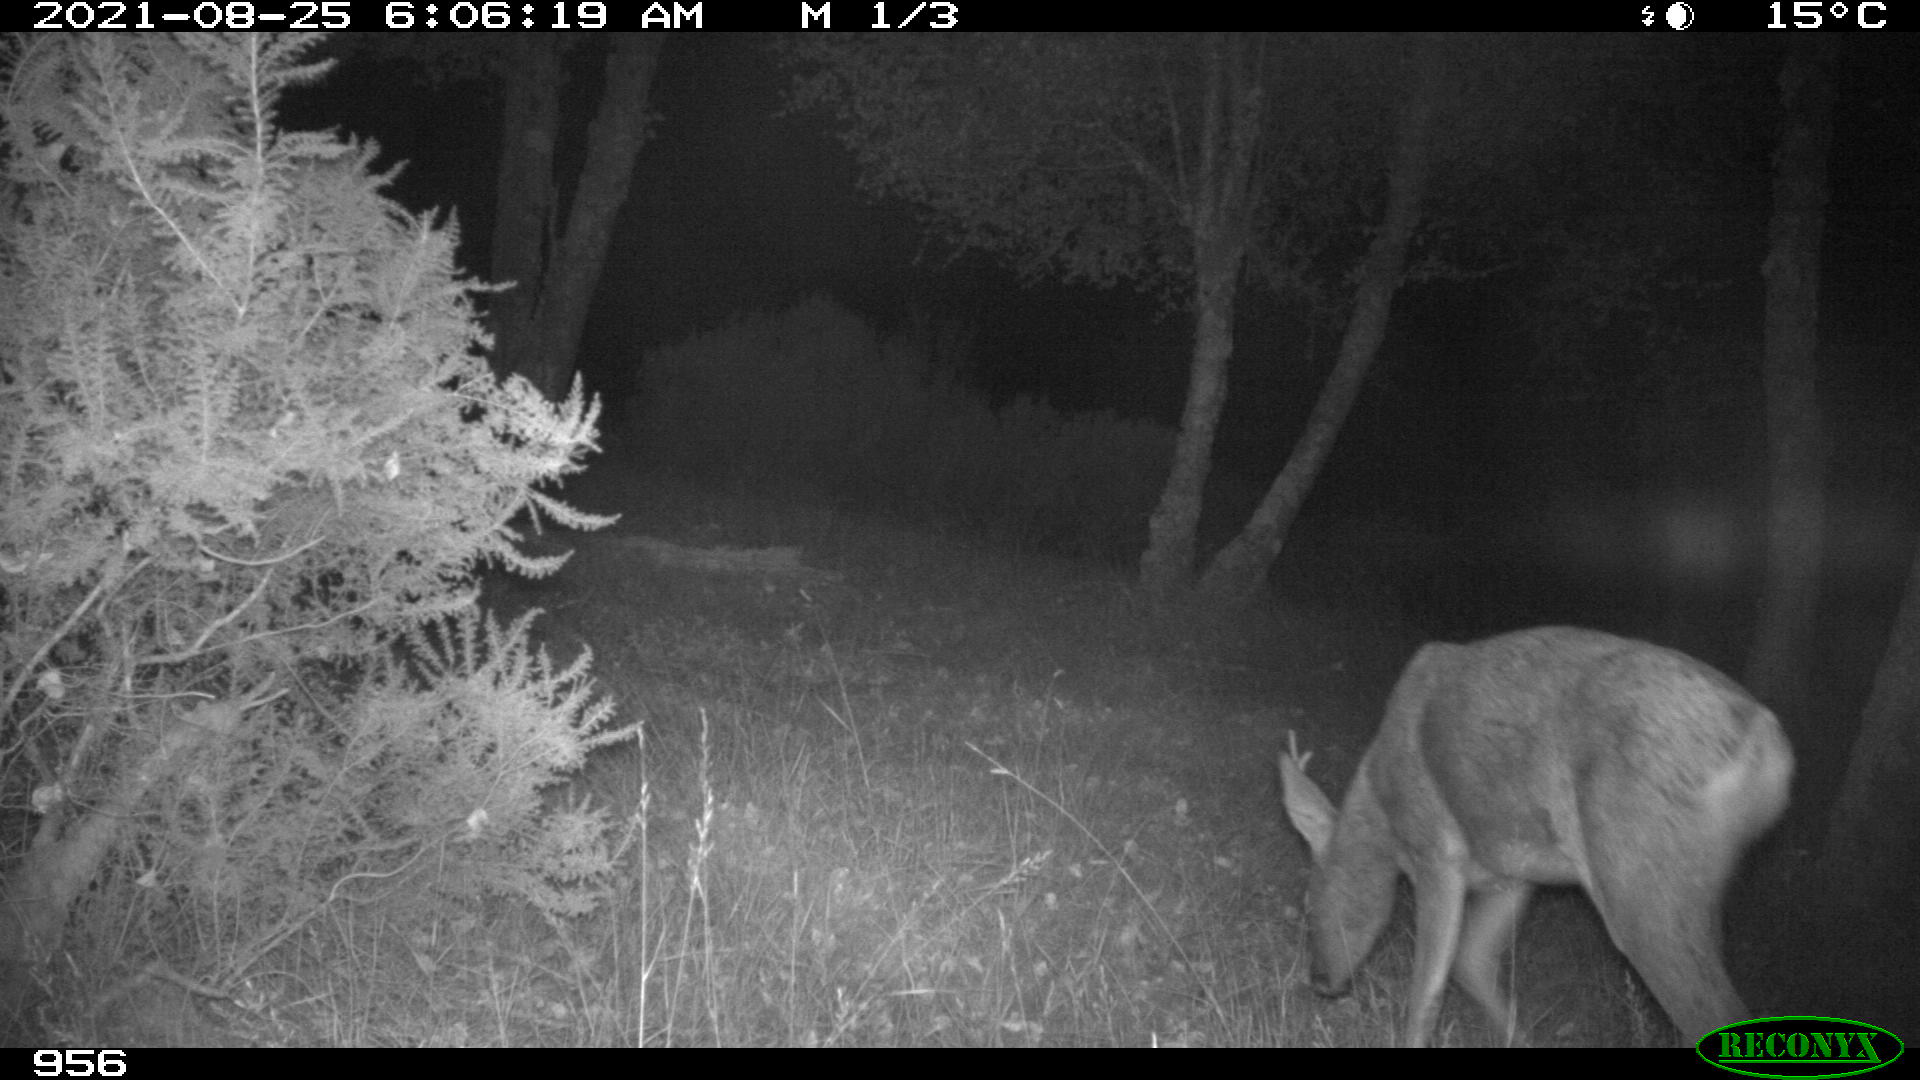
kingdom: Animalia
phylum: Chordata
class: Mammalia
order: Artiodactyla
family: Cervidae
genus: Capreolus
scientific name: Capreolus capreolus
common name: Western roe deer
